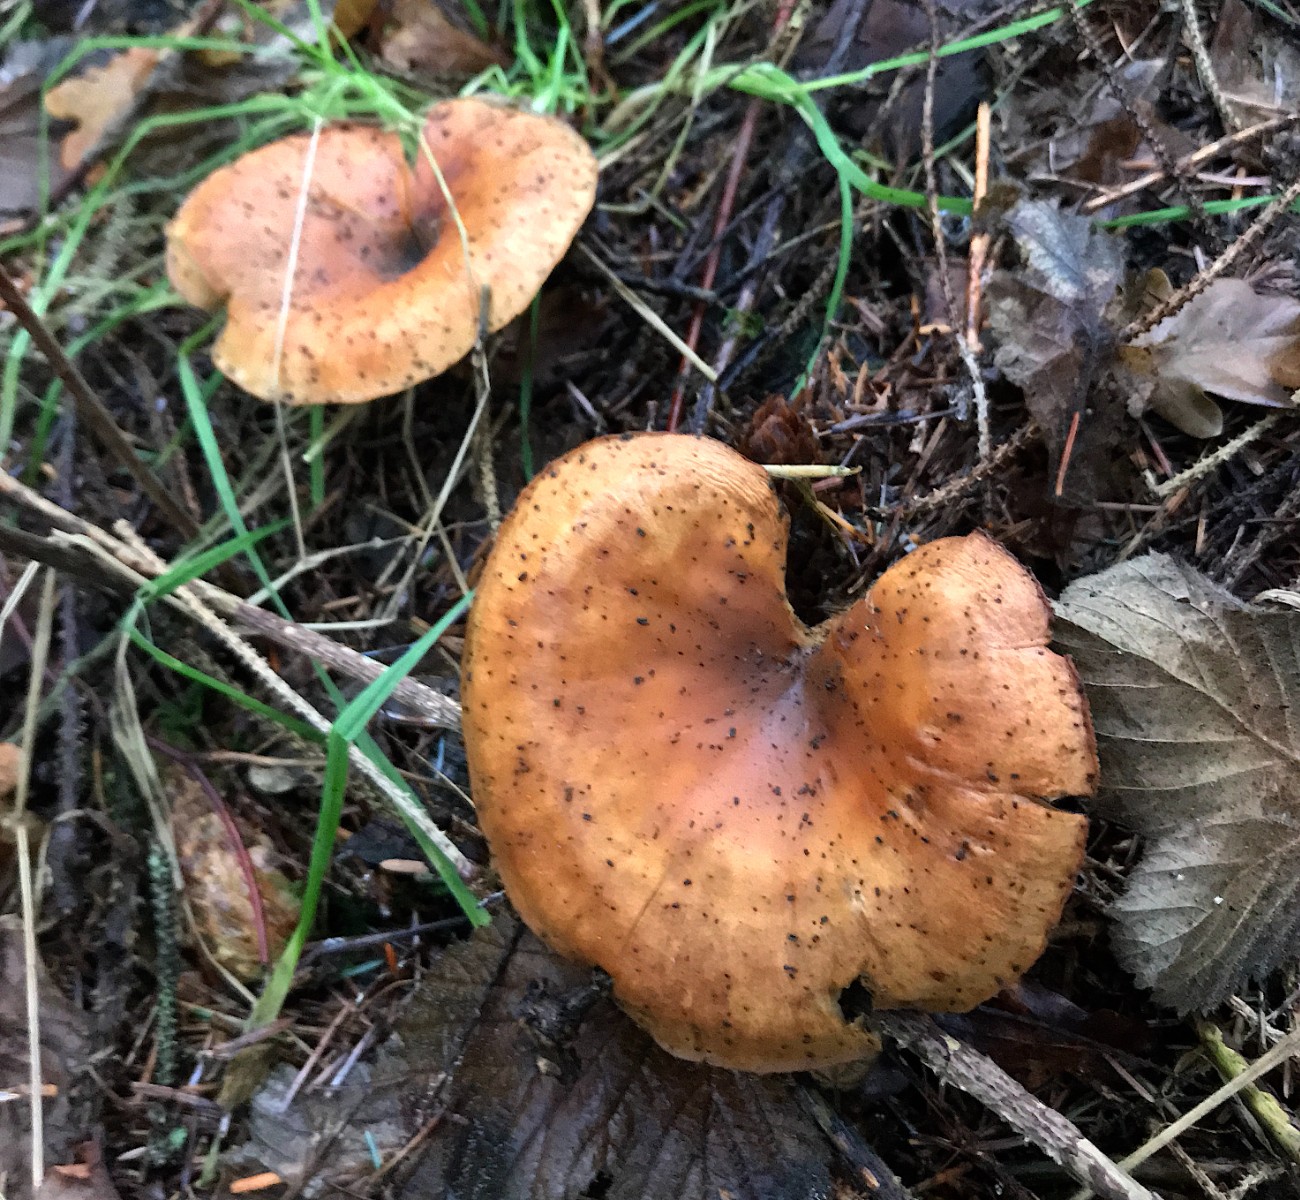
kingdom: Fungi
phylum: Basidiomycota
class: Agaricomycetes
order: Agaricales
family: Tricholomataceae
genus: Paralepista
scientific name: Paralepista flaccida
